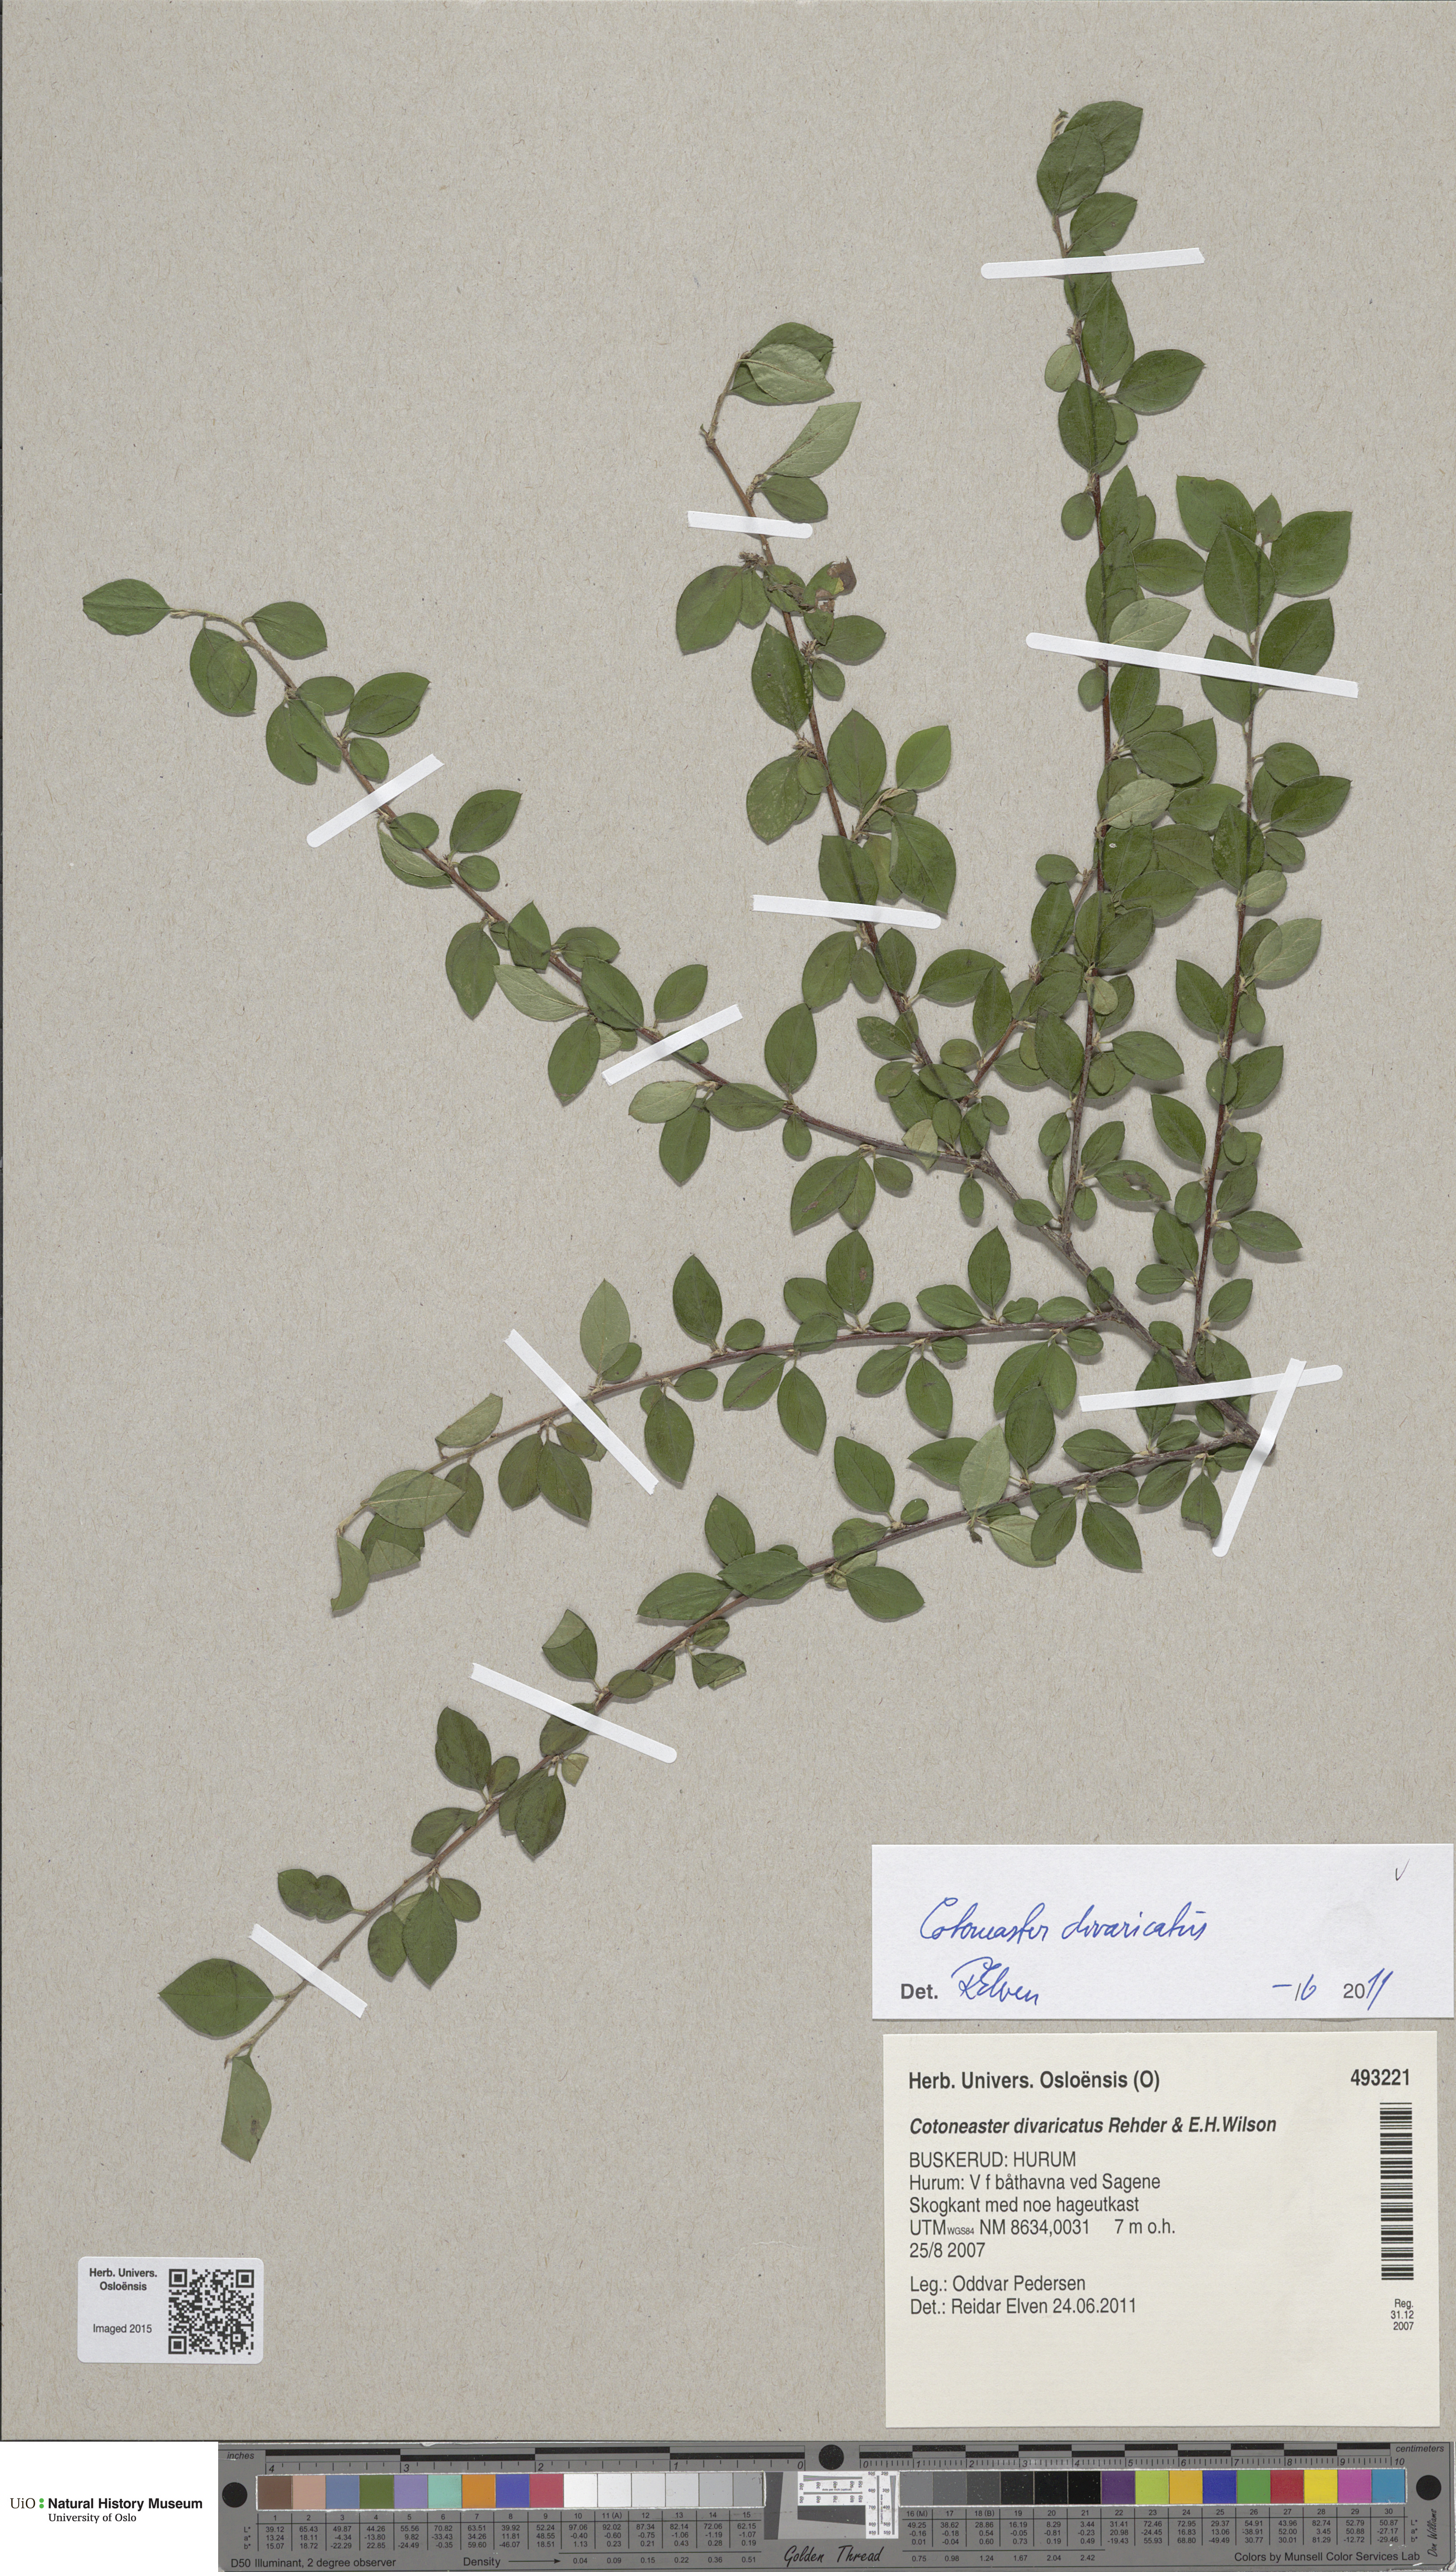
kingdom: Plantae
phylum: Tracheophyta
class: Magnoliopsida
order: Rosales
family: Rosaceae
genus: Cotoneaster
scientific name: Cotoneaster divaricatus
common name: Spreading cotoneaster
